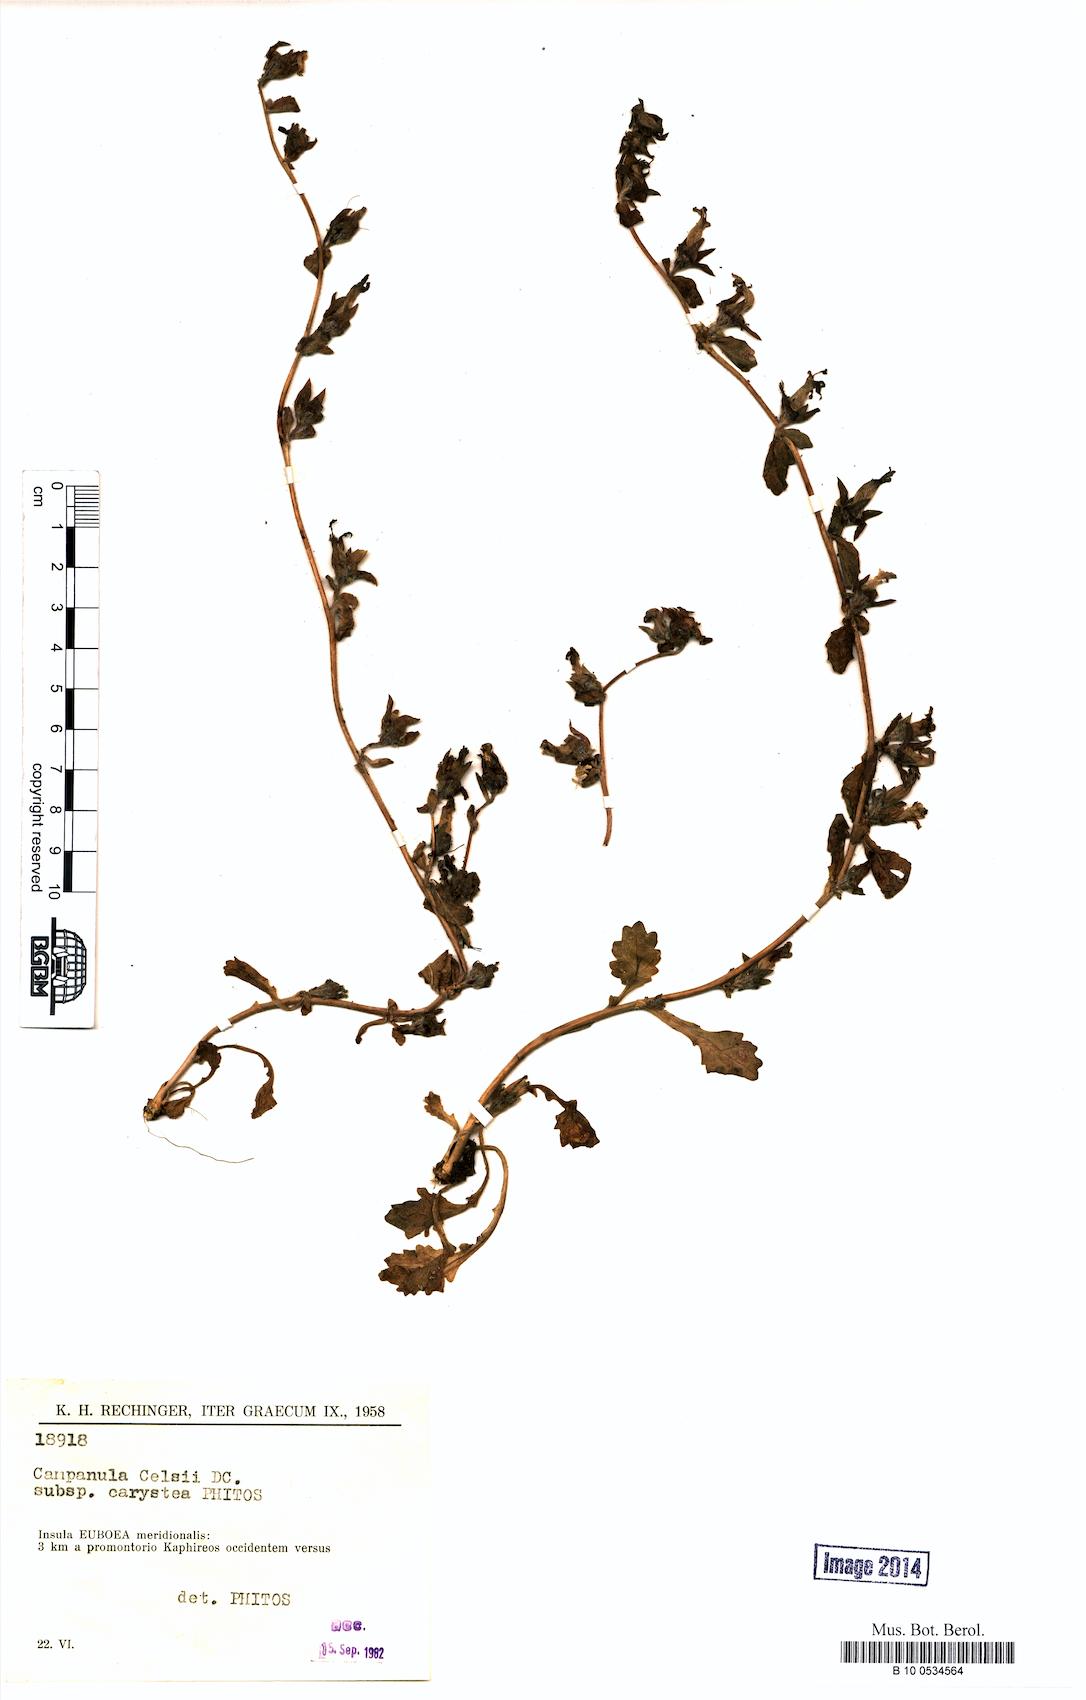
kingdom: Plantae
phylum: Tracheophyta
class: Magnoliopsida
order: Asterales
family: Campanulaceae
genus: Campanula
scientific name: Campanula celsii
